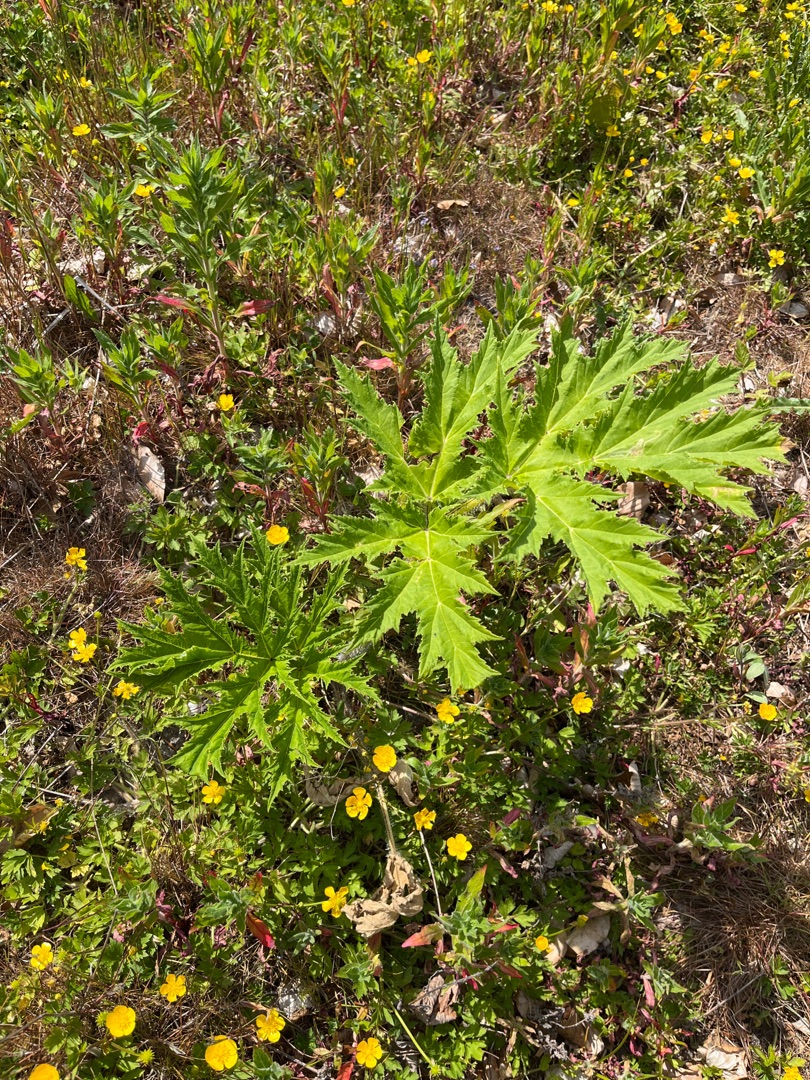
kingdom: Plantae
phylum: Tracheophyta
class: Magnoliopsida
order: Apiales
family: Apiaceae
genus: Heracleum
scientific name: Heracleum mantegazzianum
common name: Kæmpe-bjørneklo
